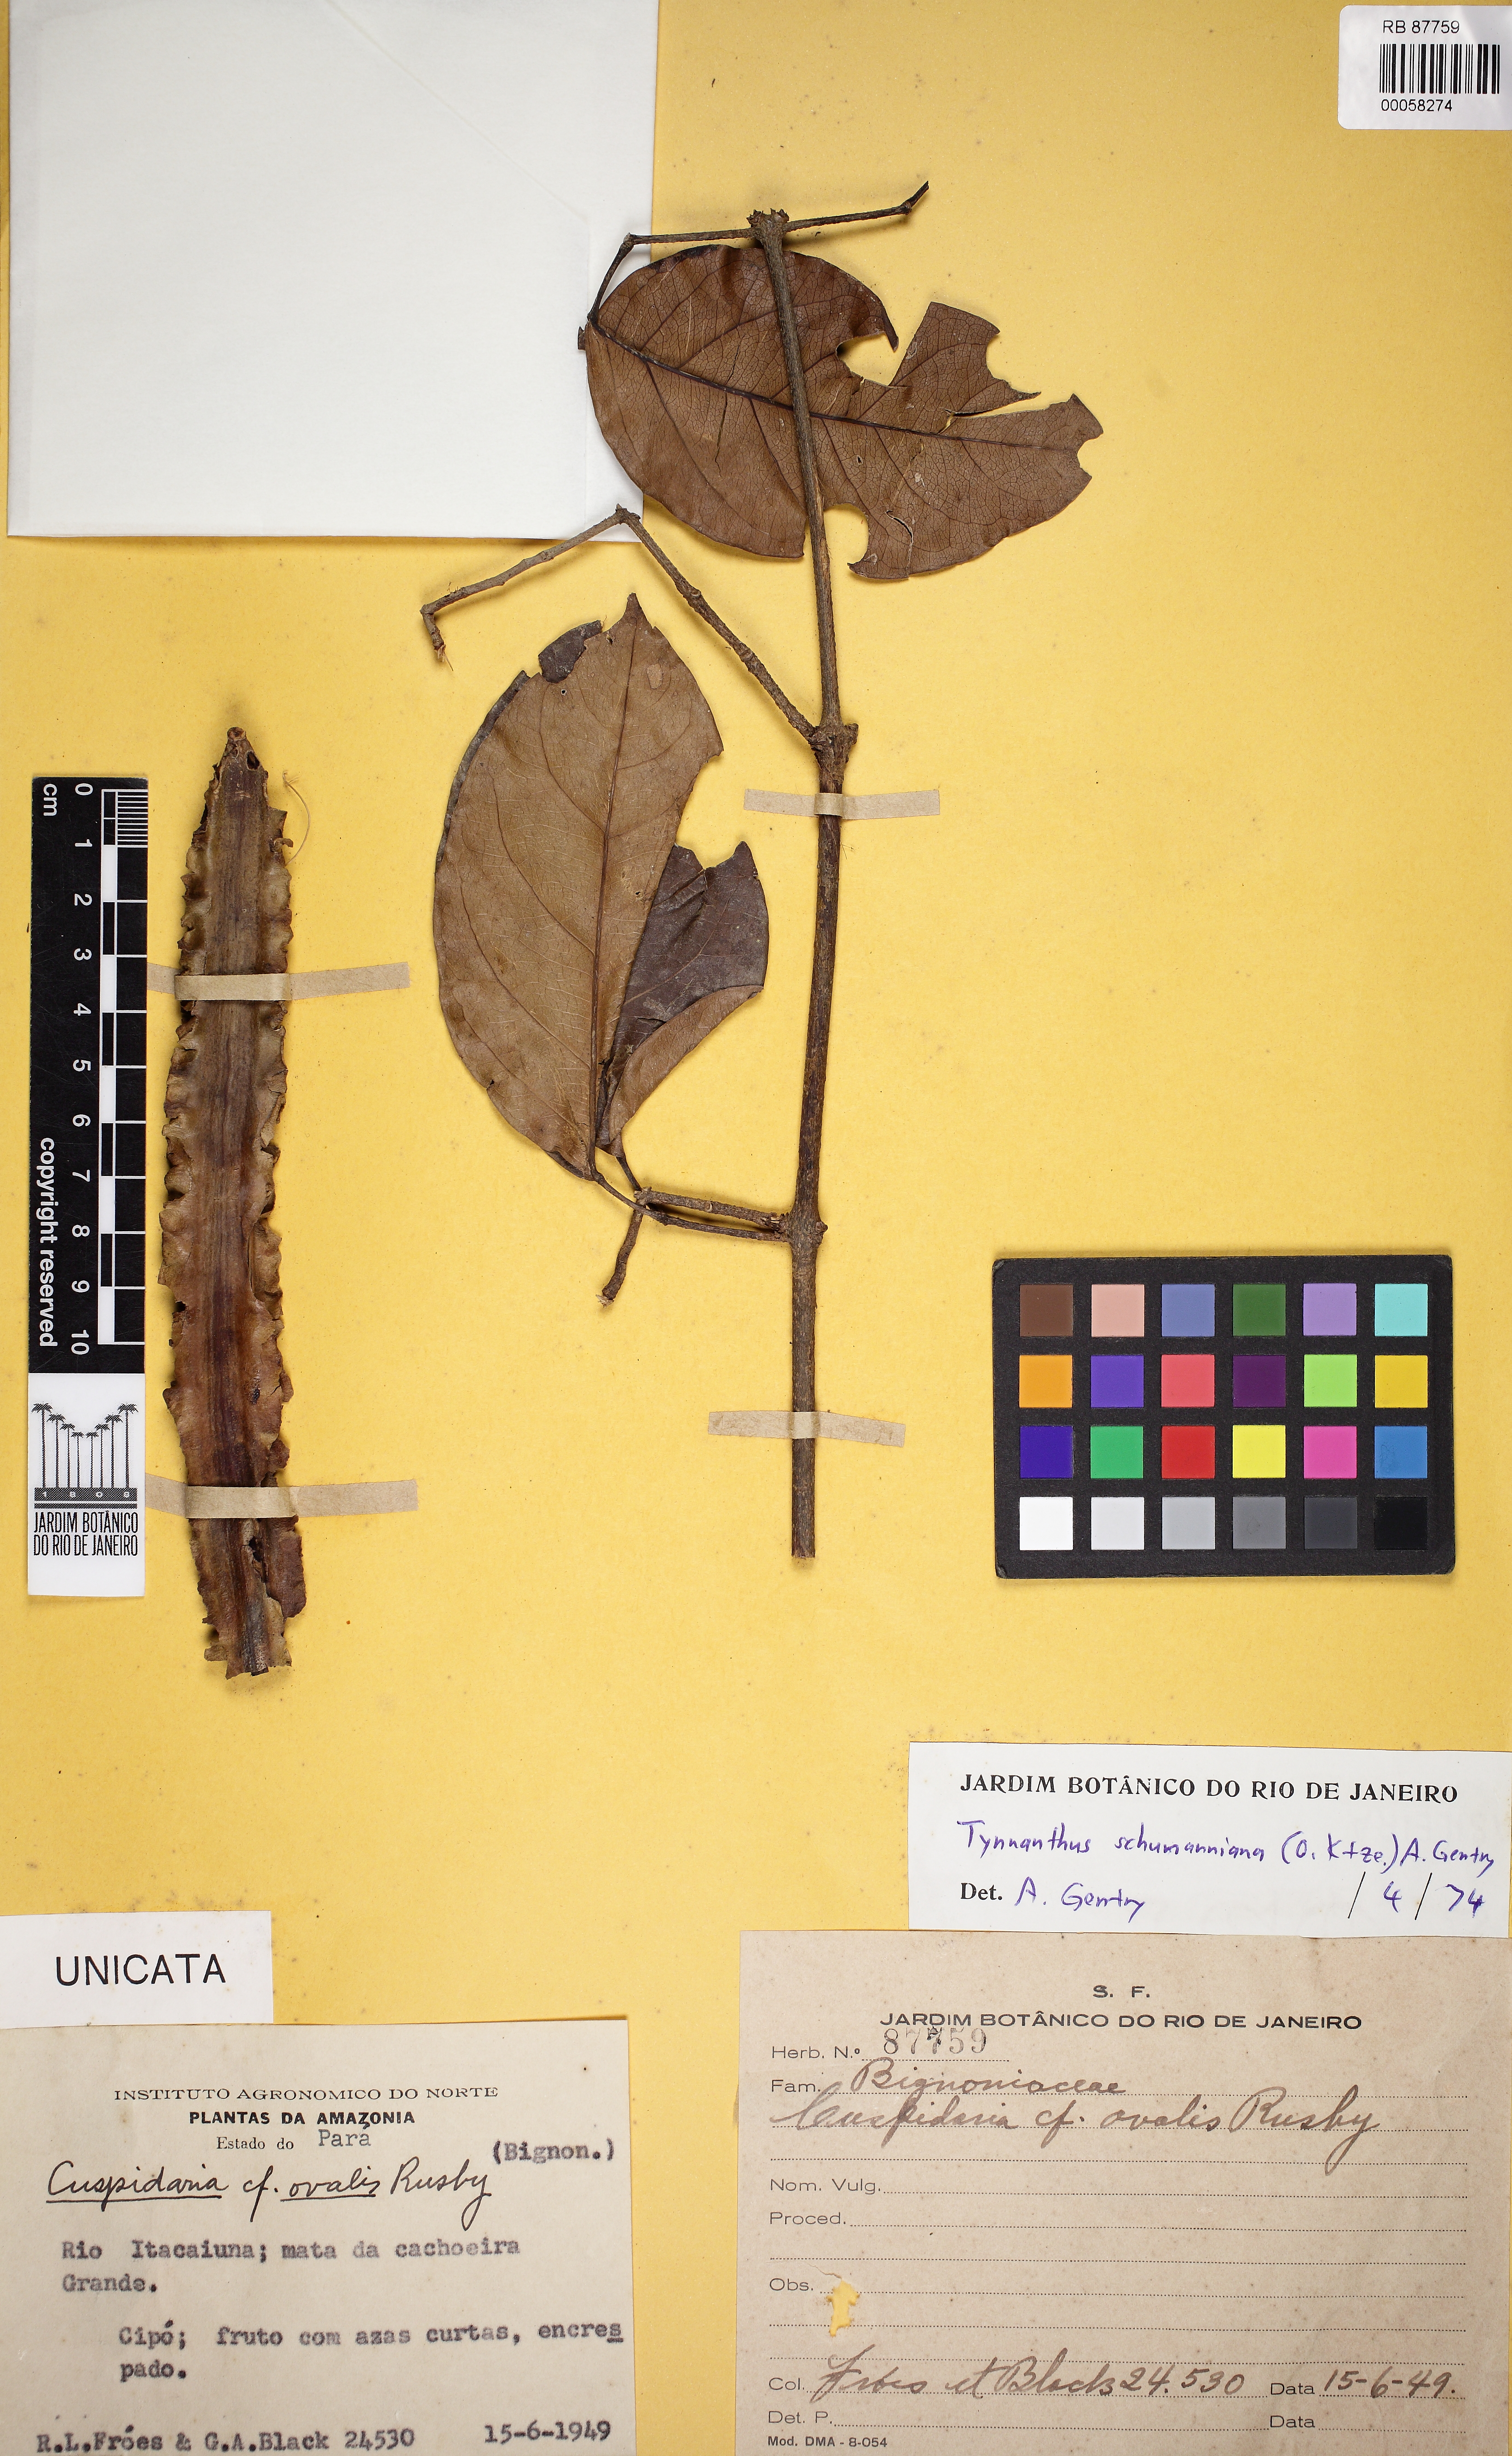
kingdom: Plantae
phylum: Tracheophyta
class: Magnoliopsida
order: Lamiales
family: Bignoniaceae
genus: Tynanthus
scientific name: Tynanthus schumannianus
